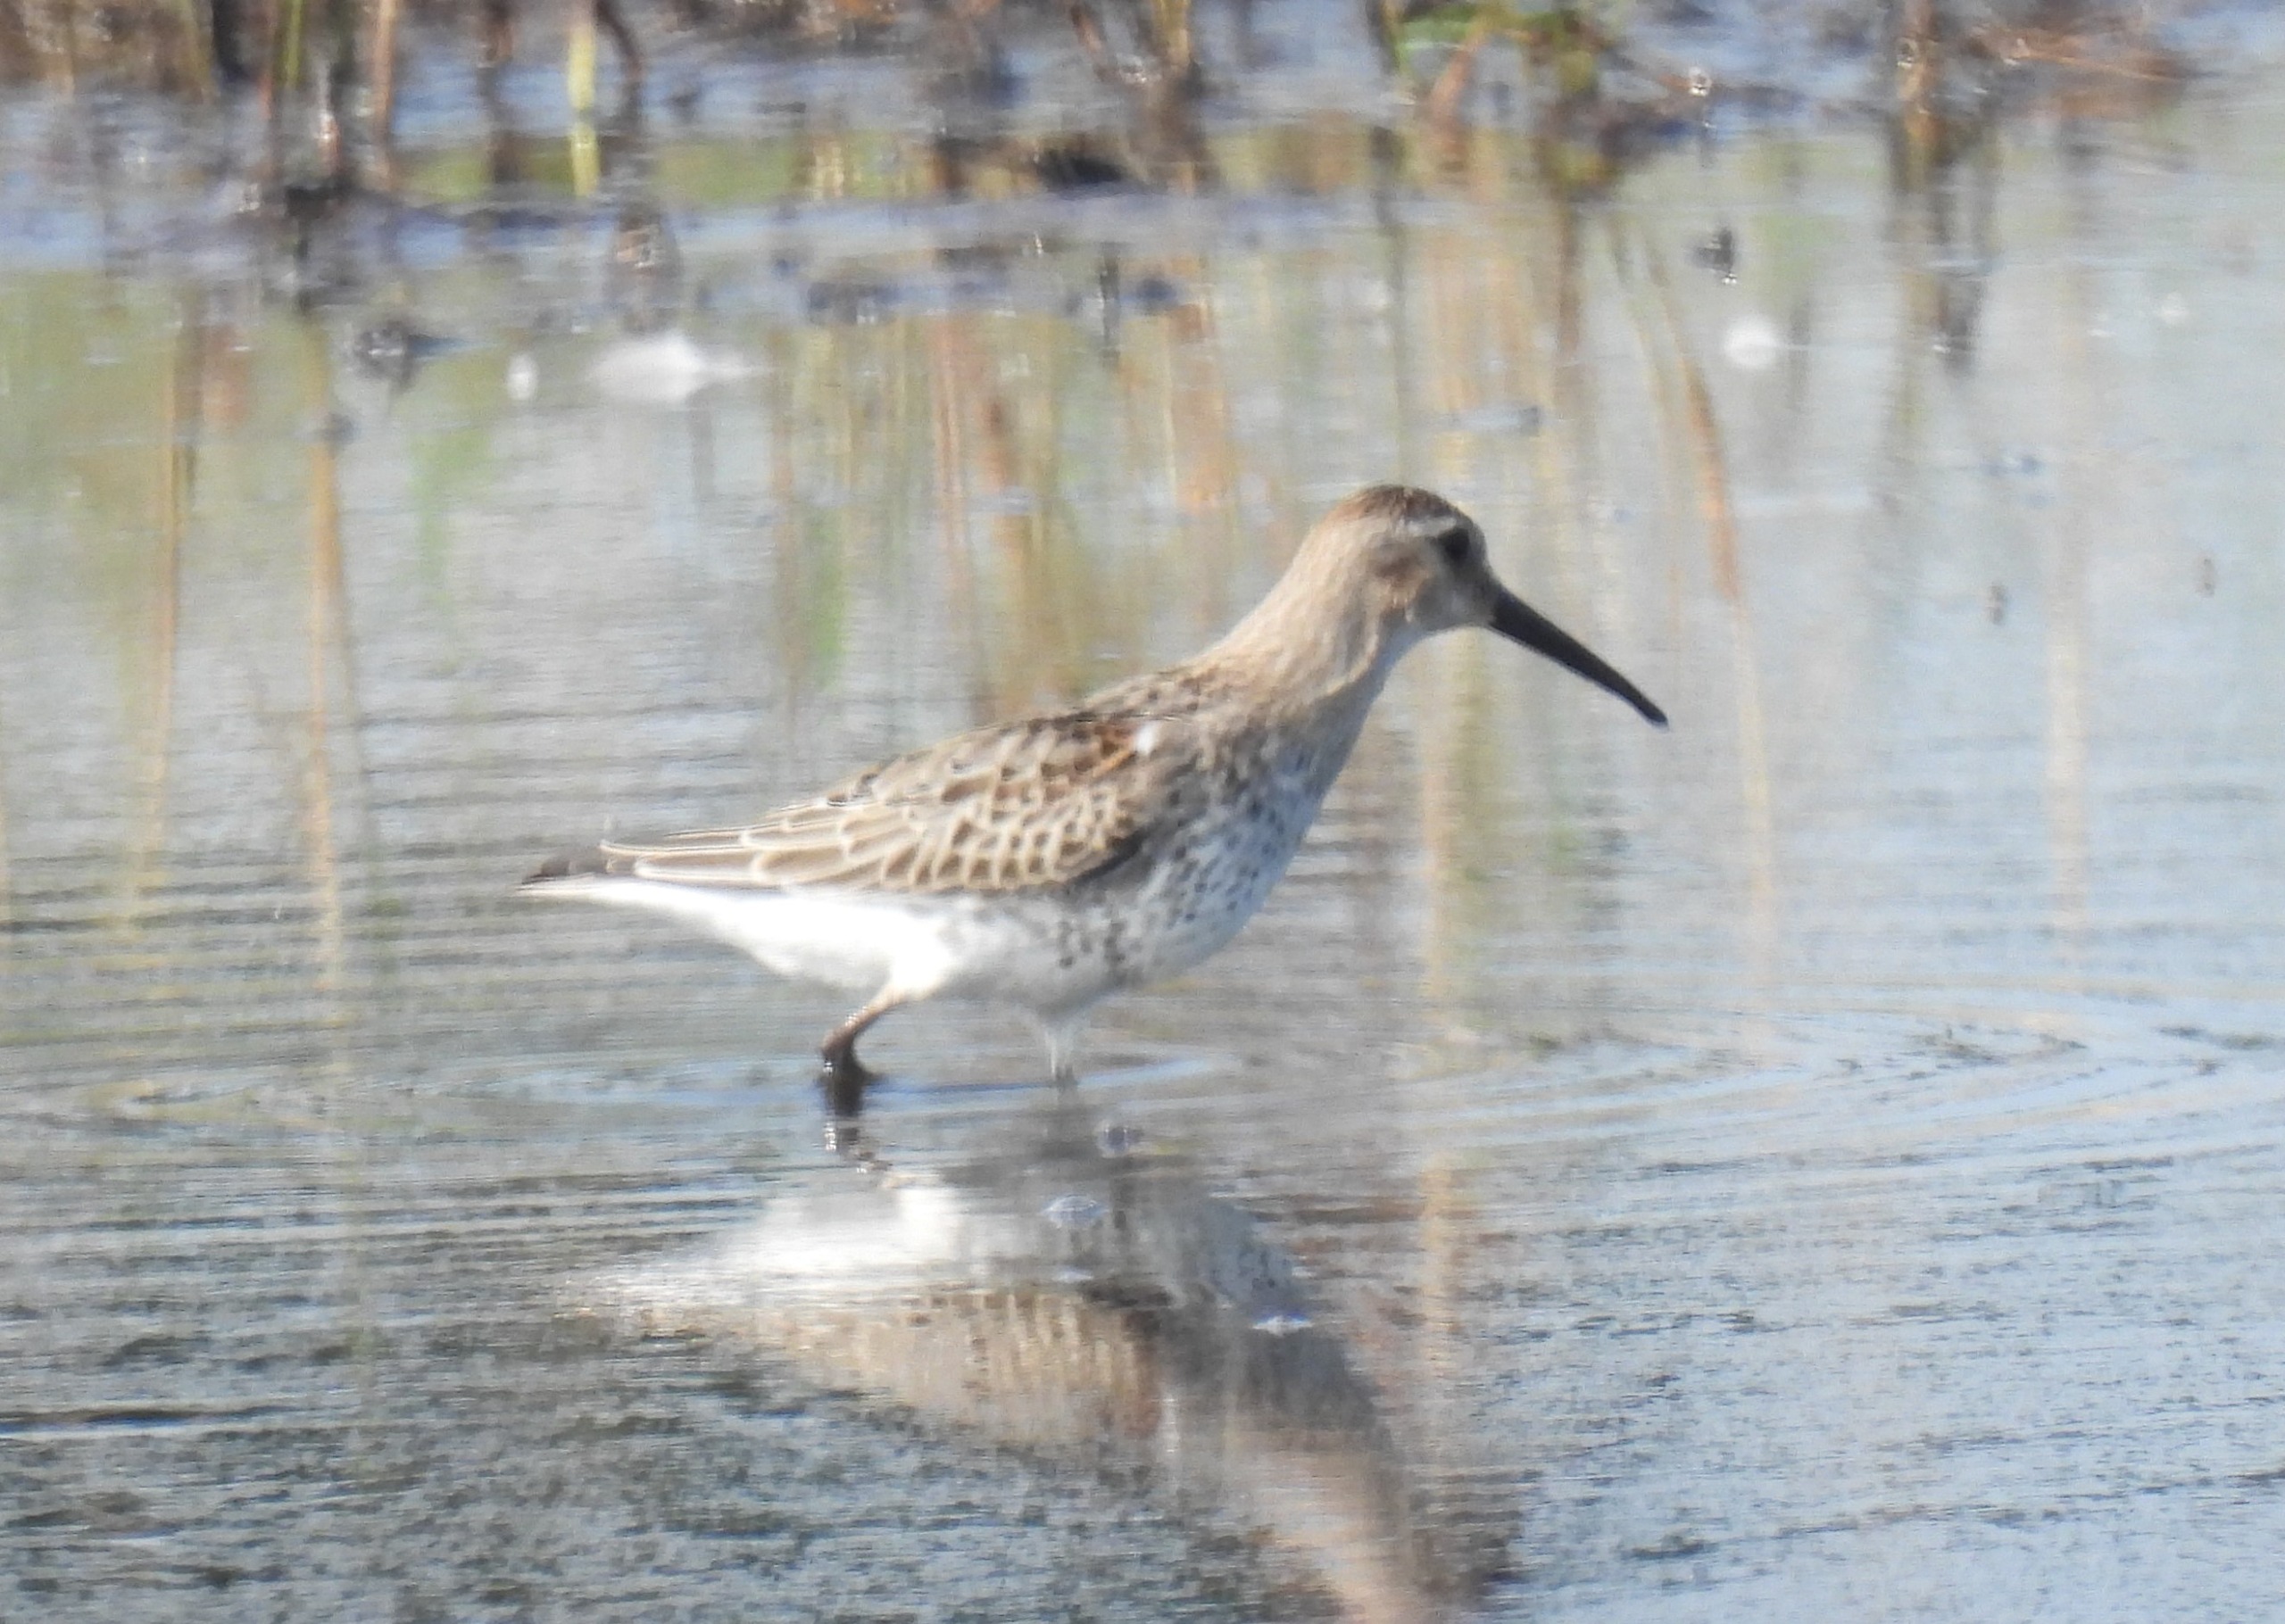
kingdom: Animalia
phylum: Chordata
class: Aves
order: Charadriiformes
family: Scolopacidae
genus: Calidris
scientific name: Calidris alpina
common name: Almindelig ryle
